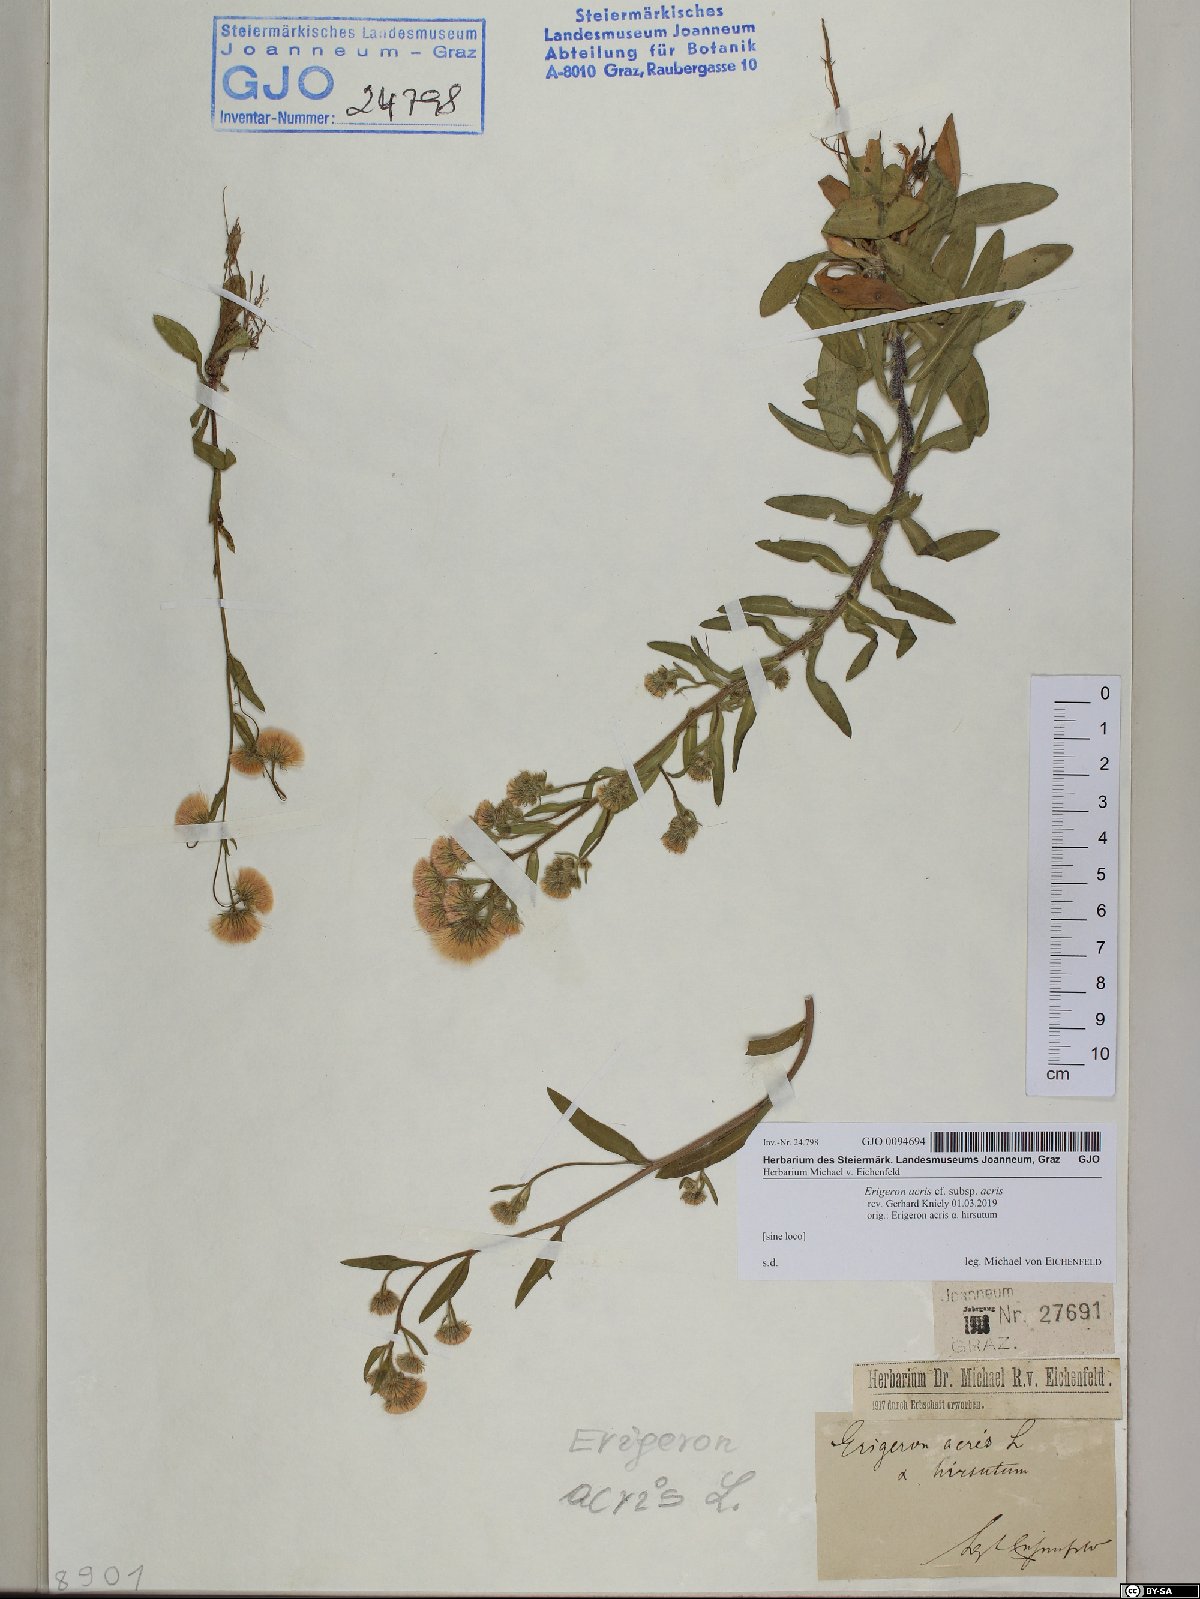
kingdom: Plantae
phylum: Tracheophyta
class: Magnoliopsida
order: Asterales
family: Asteraceae
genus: Erigeron
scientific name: Erigeron acris
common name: Blue fleabane
